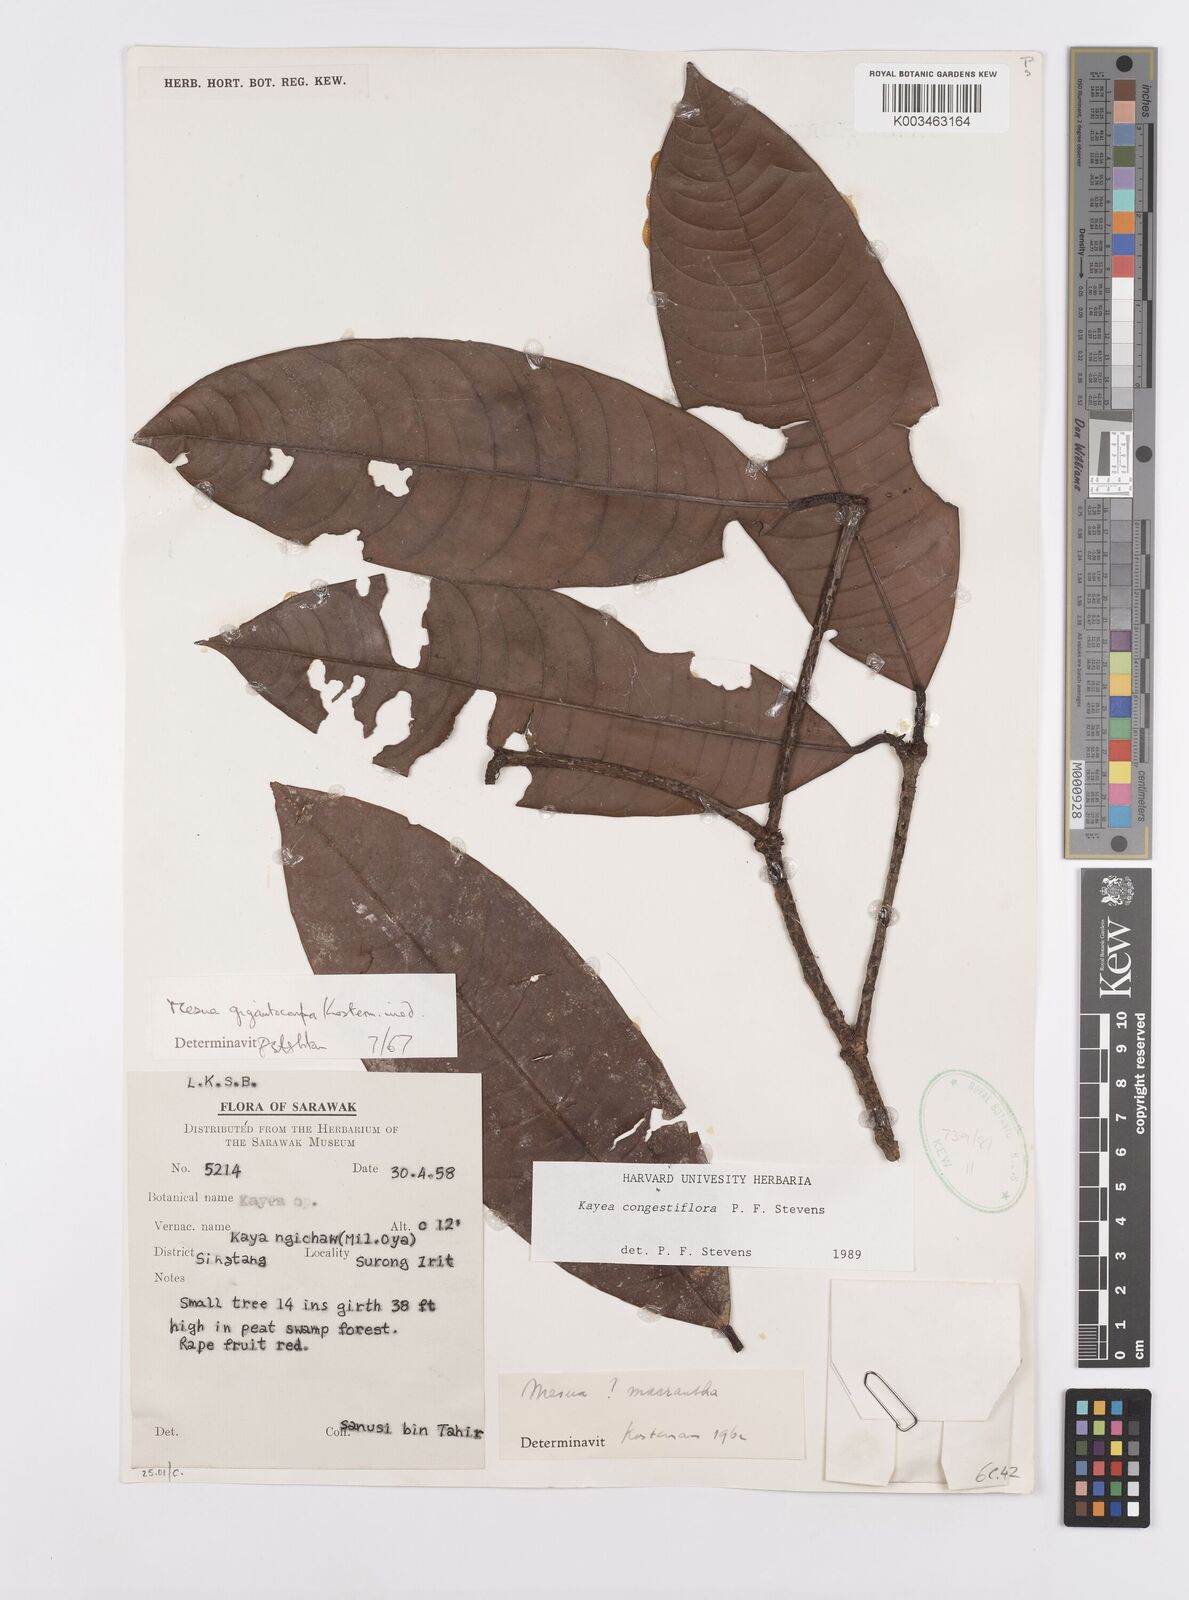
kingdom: Plantae
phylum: Tracheophyta
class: Magnoliopsida
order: Malpighiales
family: Calophyllaceae
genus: Kayea
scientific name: Kayea
